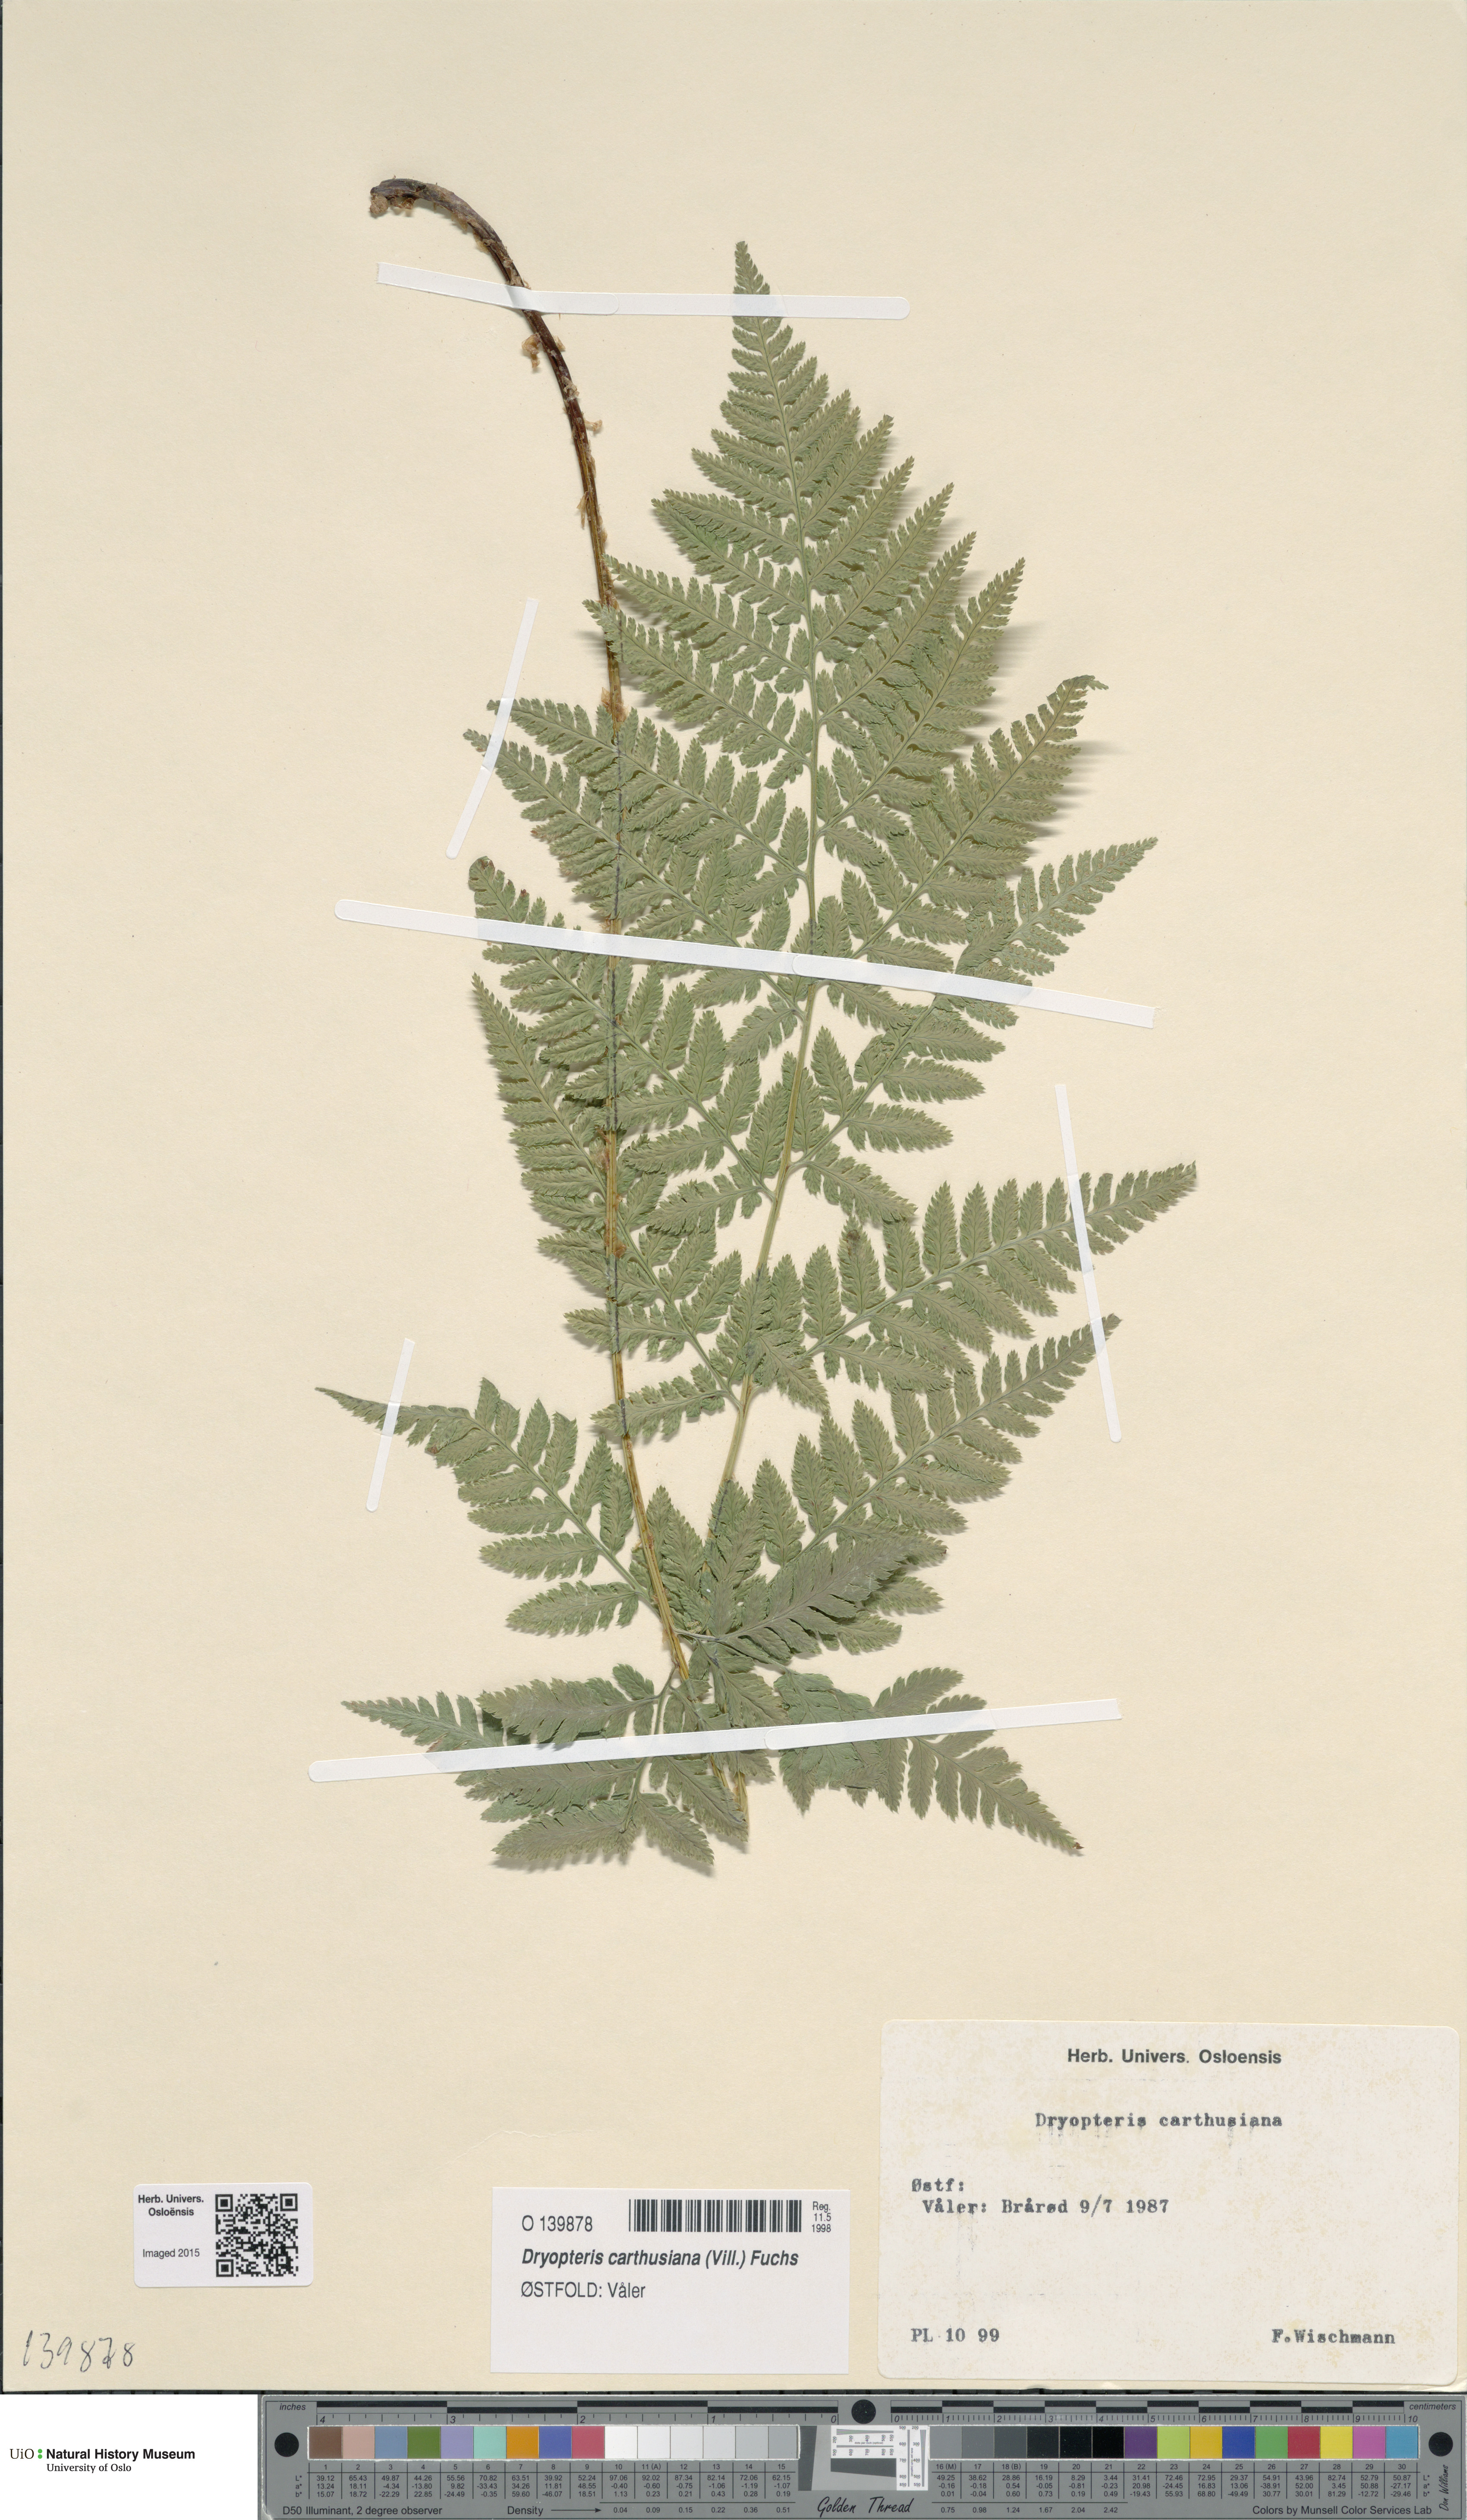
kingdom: Plantae
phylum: Tracheophyta
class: Polypodiopsida
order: Polypodiales
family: Dryopteridaceae
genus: Dryopteris
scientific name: Dryopteris carthusiana
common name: Narrow buckler-fern
